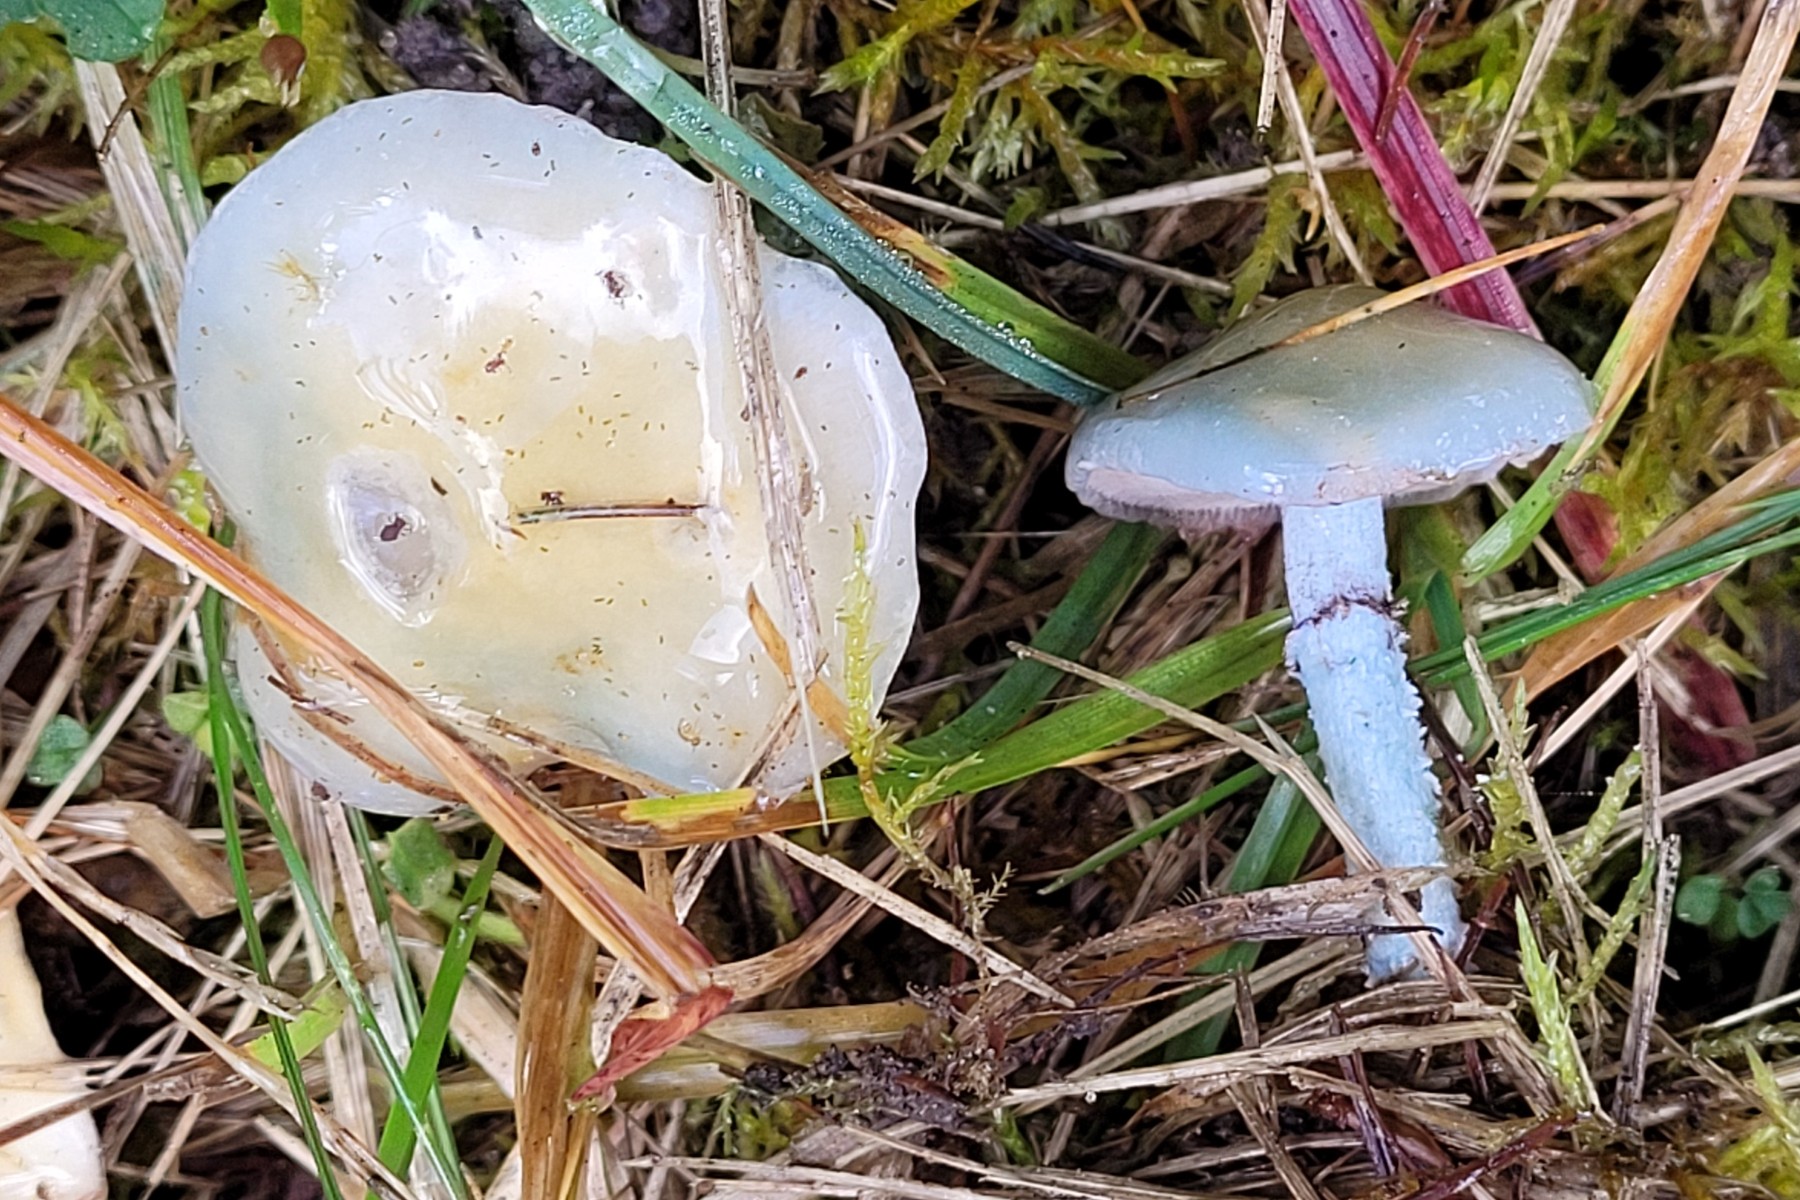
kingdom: Fungi
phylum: Basidiomycota
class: Agaricomycetes
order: Agaricales
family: Strophariaceae
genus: Stropharia
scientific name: Stropharia pseudocyanea
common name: blegblå bredblad
